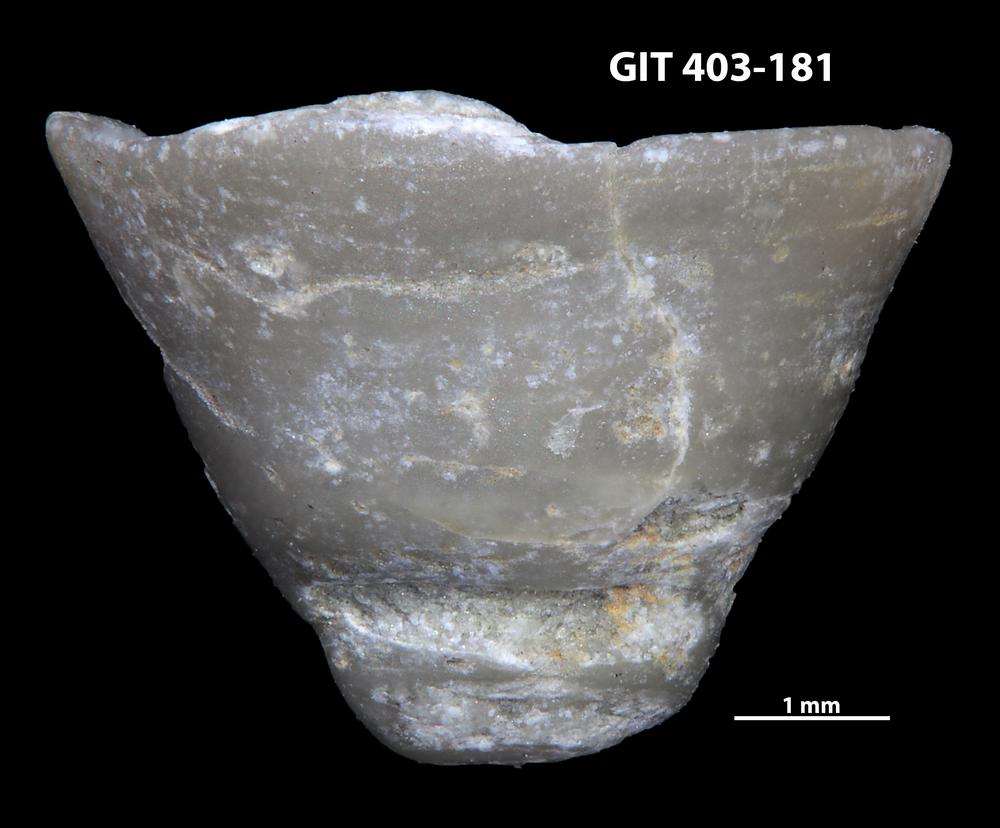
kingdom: Animalia
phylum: Mollusca
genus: Anticalyptraea
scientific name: Anticalyptraea westergaardi
